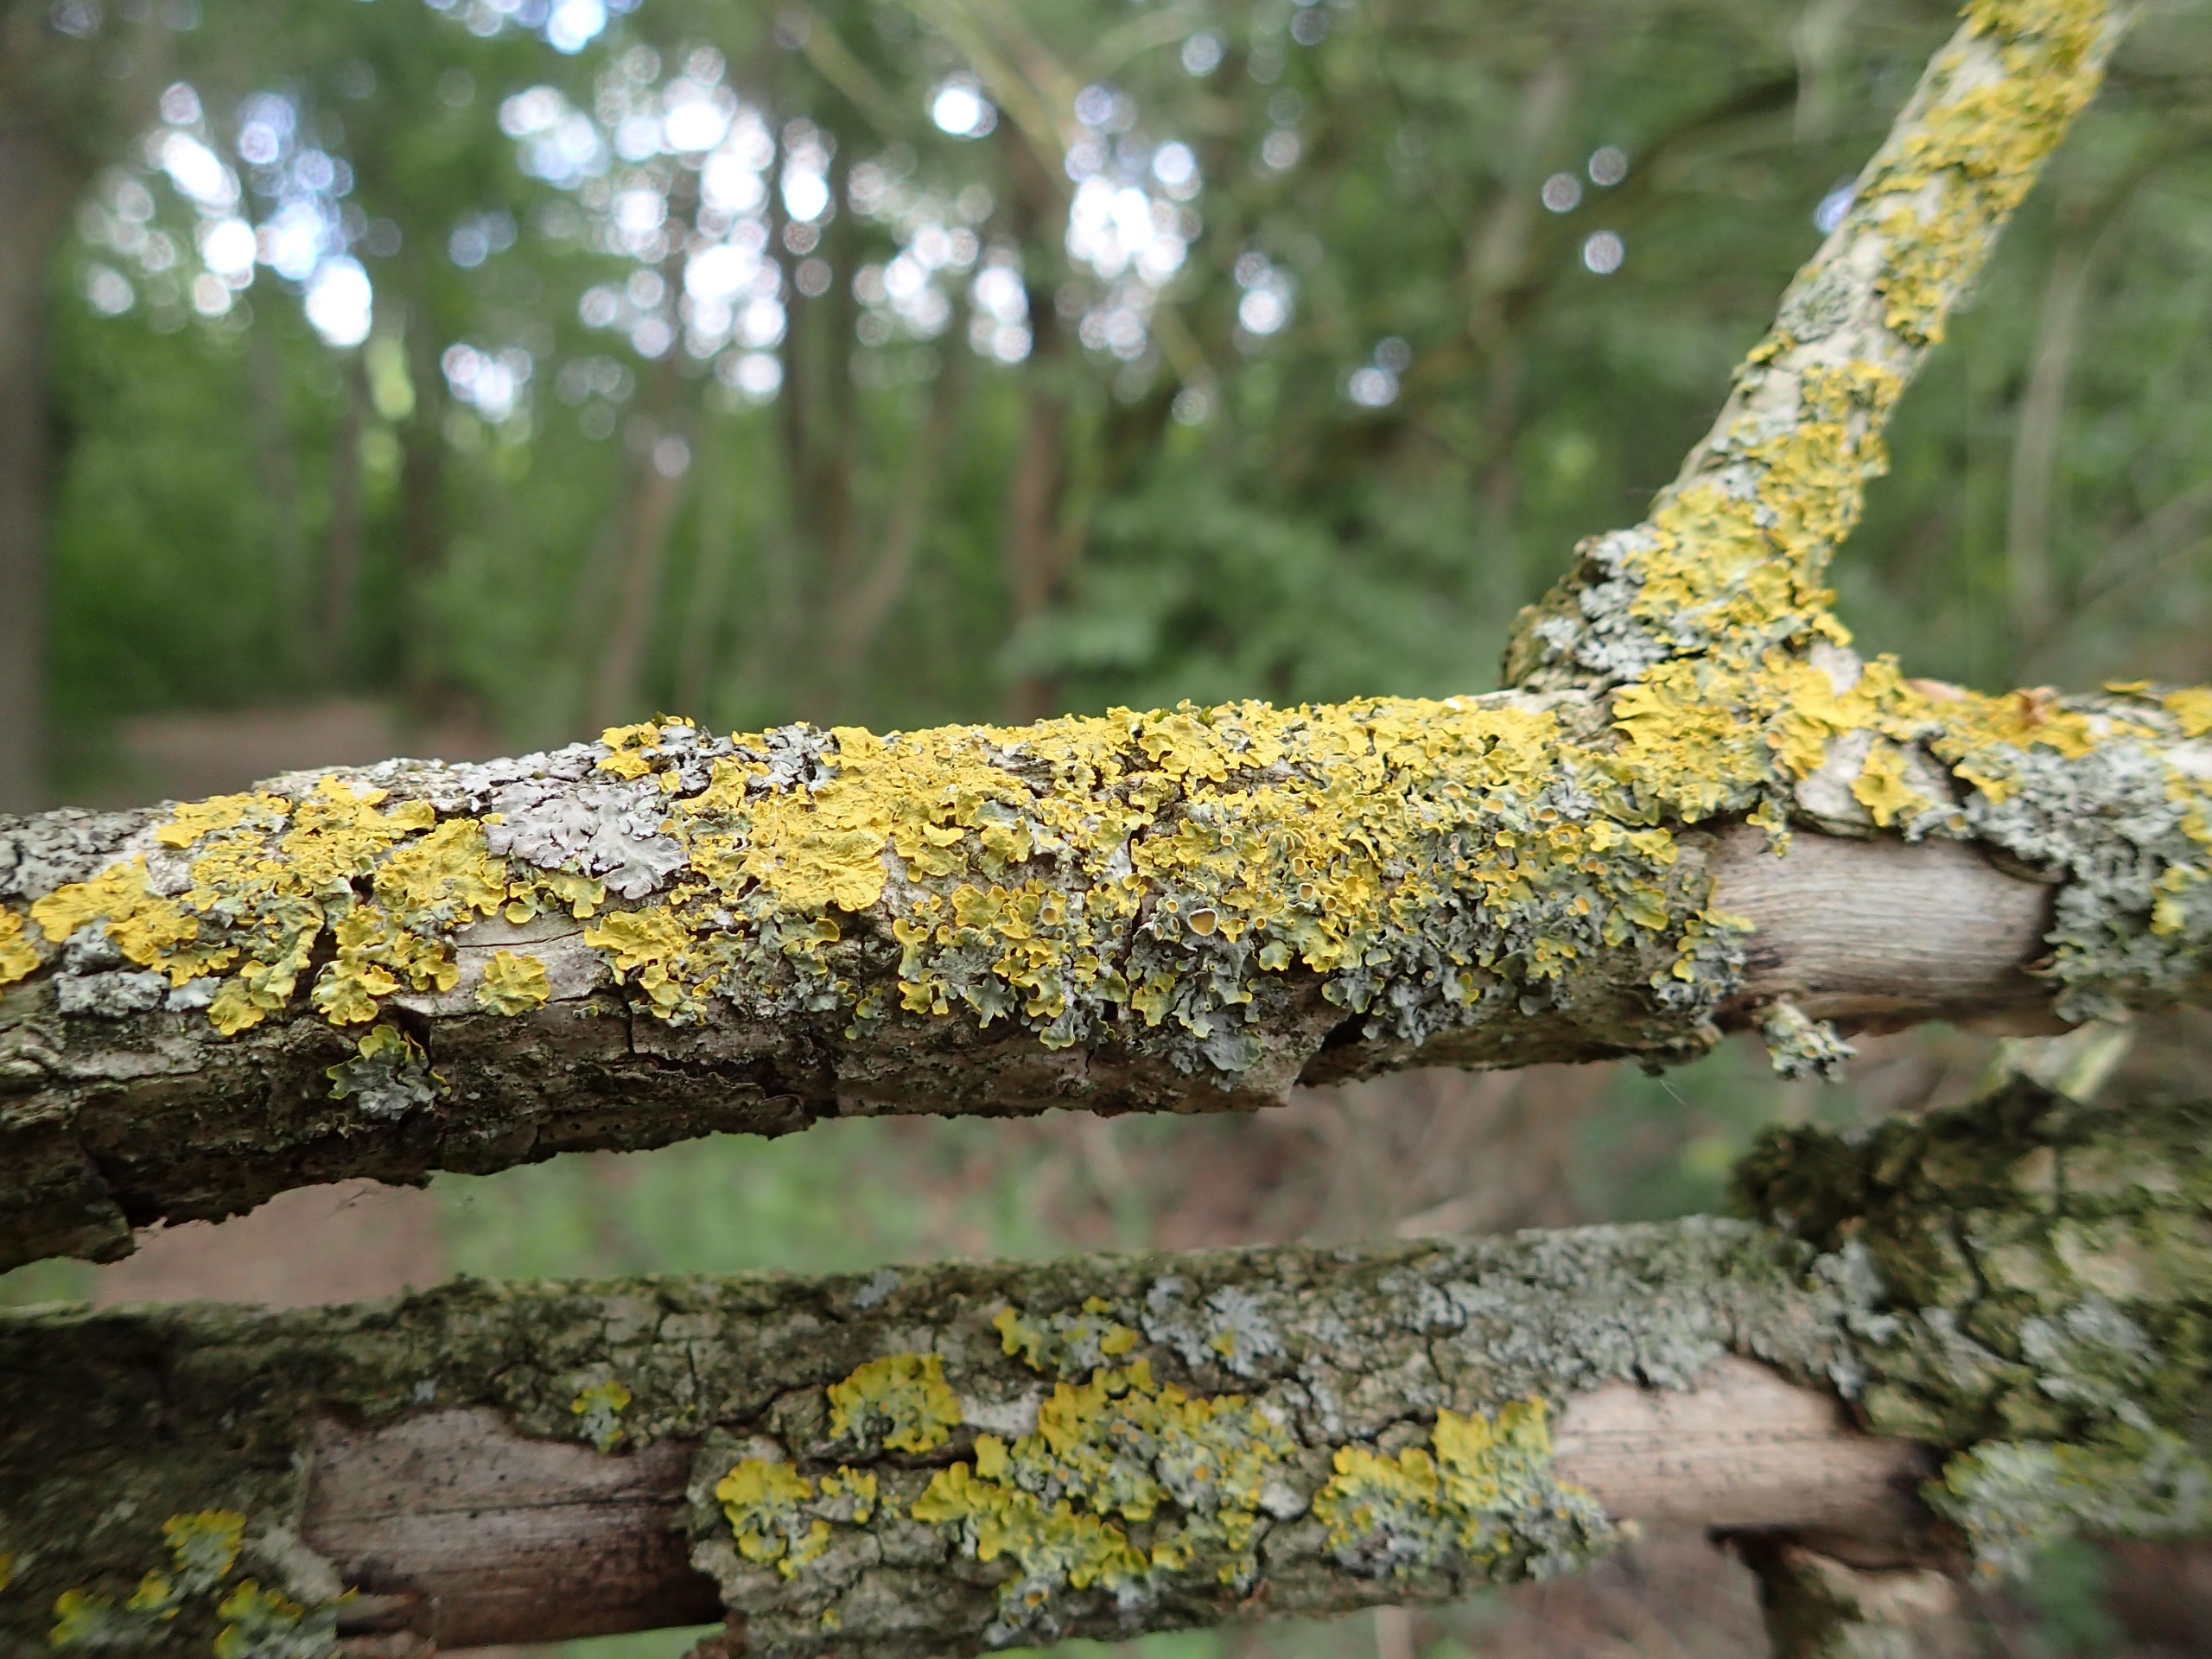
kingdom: Fungi
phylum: Ascomycota
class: Lecanoromycetes
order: Teloschistales
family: Teloschistaceae
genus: Xanthoria
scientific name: Xanthoria parietina
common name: Almindelig væggelav
